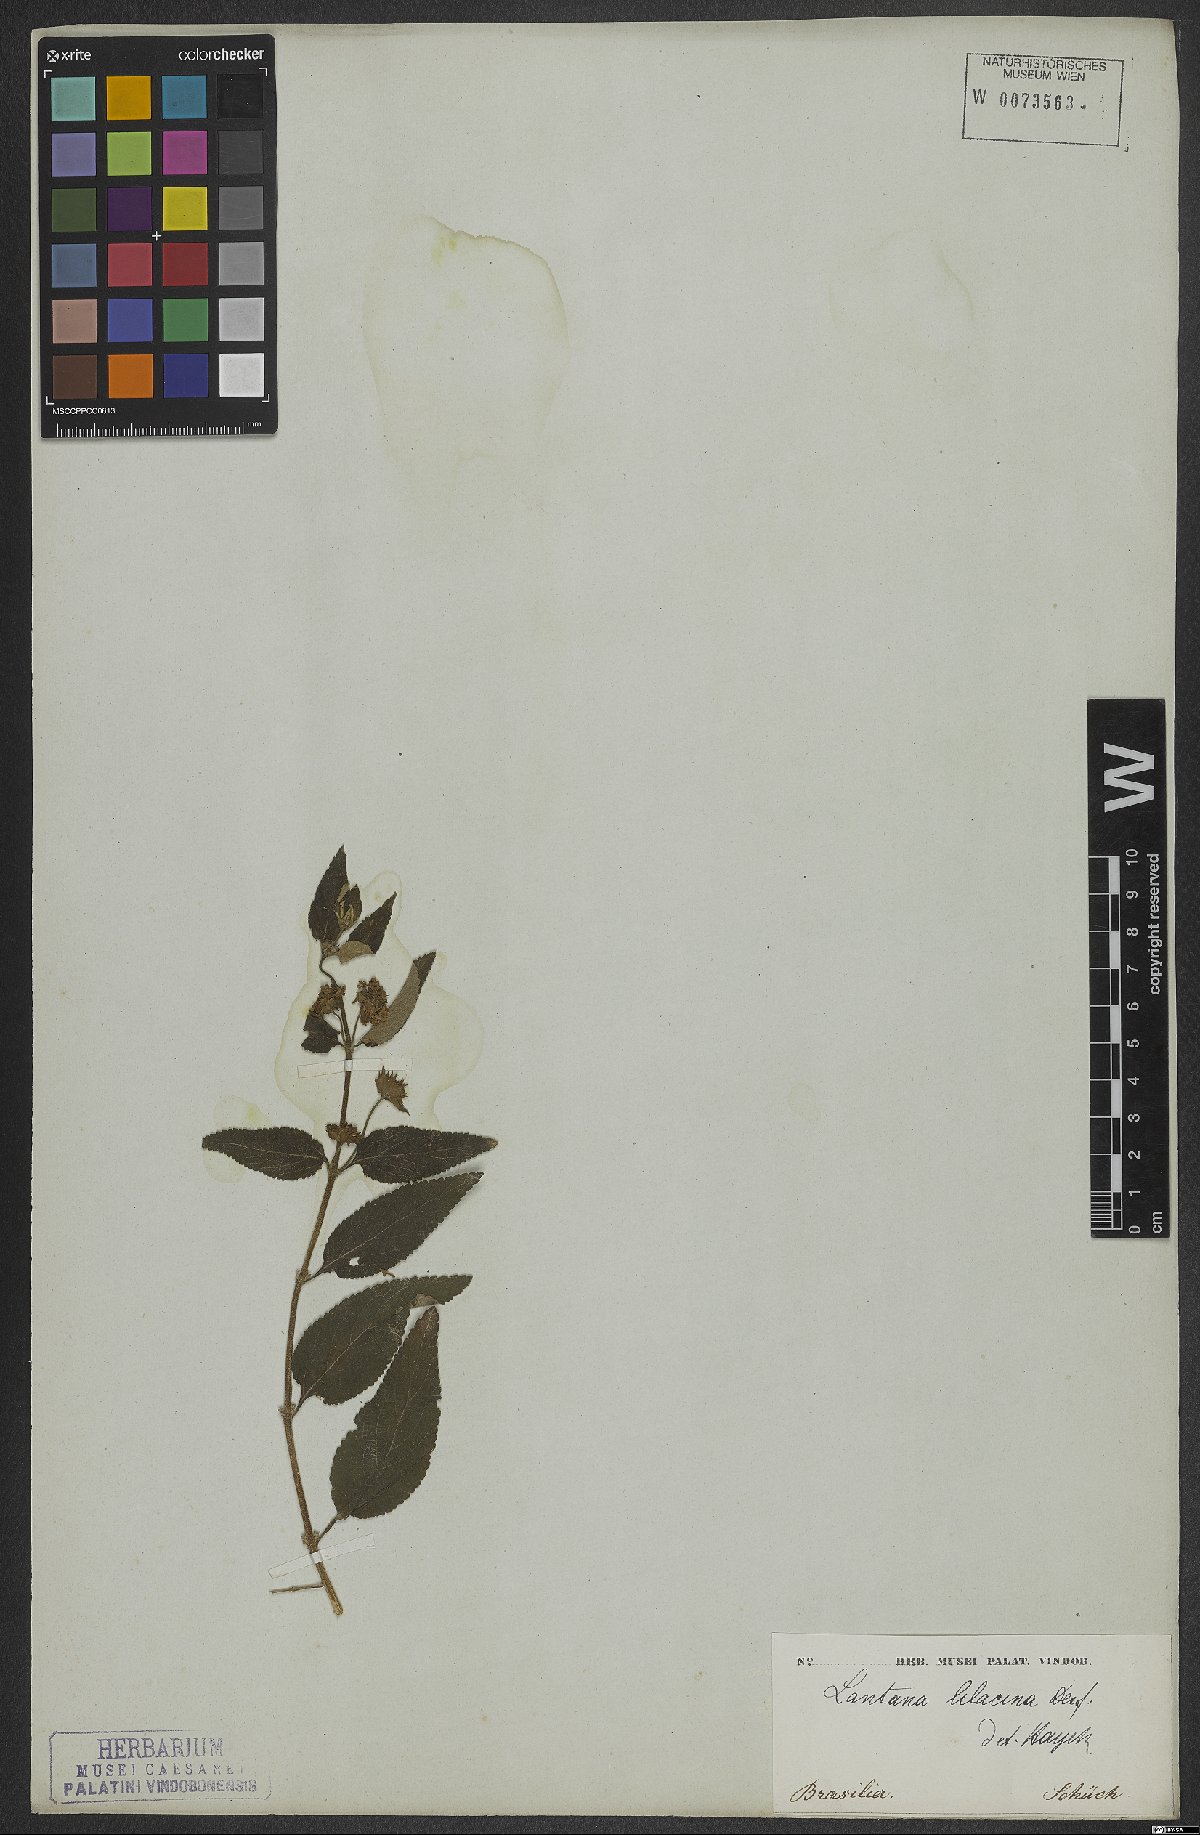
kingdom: Plantae
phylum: Tracheophyta
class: Magnoliopsida
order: Lamiales
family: Verbenaceae
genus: Lantana
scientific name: Lantana fucata
